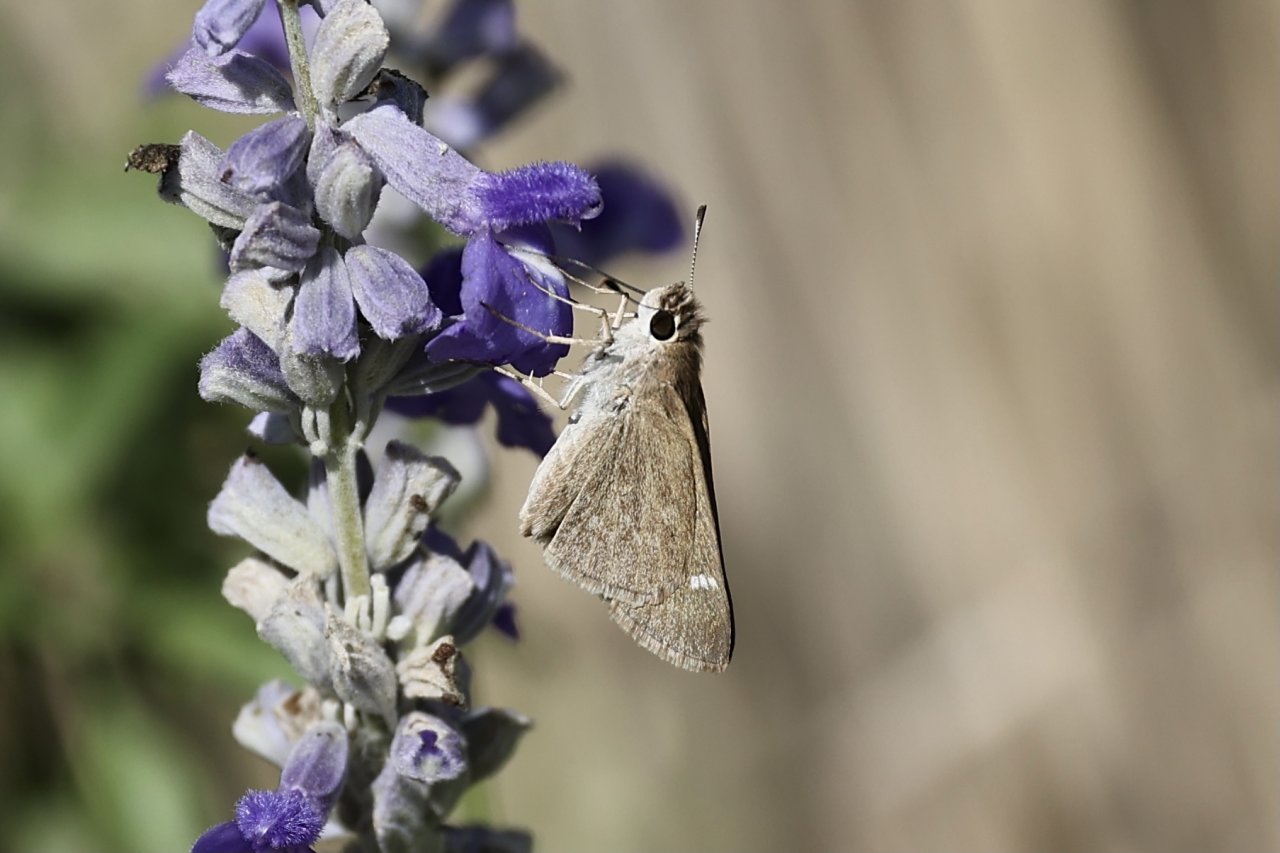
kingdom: Animalia
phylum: Arthropoda
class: Insecta
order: Lepidoptera
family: Hesperiidae
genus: Lerodea
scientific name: Lerodea eufala
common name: Eufala Skipper
